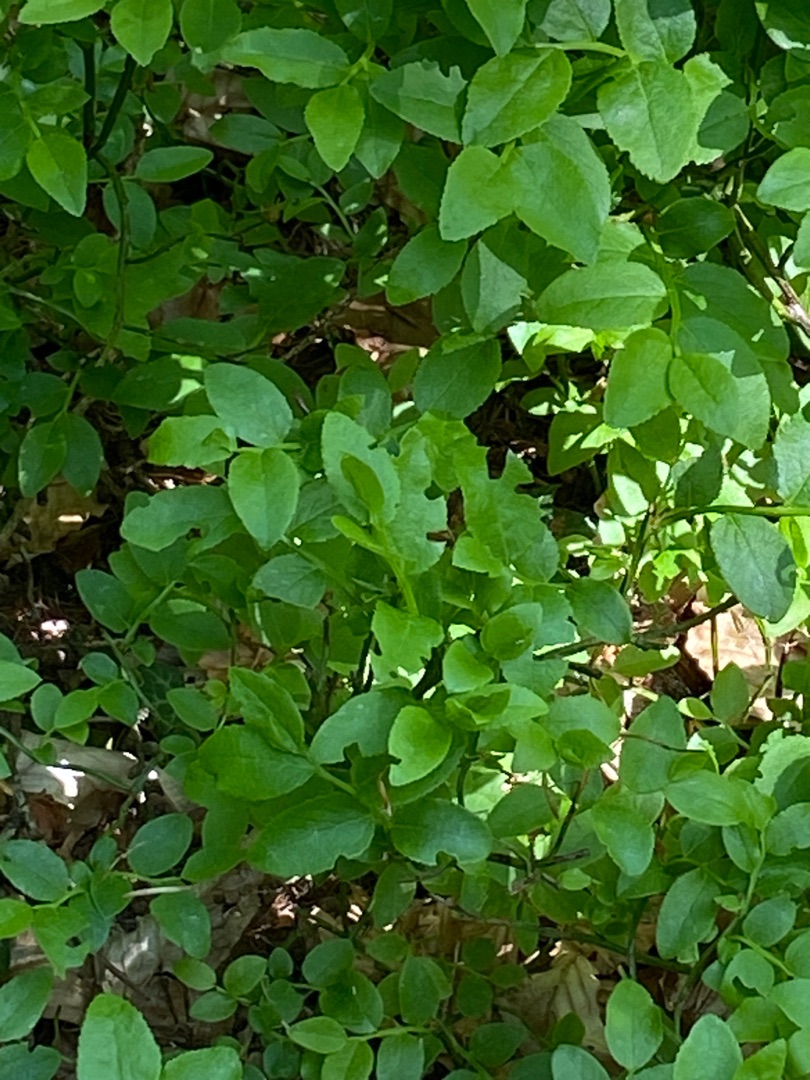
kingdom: Plantae
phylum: Tracheophyta
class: Magnoliopsida
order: Ericales
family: Ericaceae
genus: Vaccinium
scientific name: Vaccinium myrtillus
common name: Blåbær
